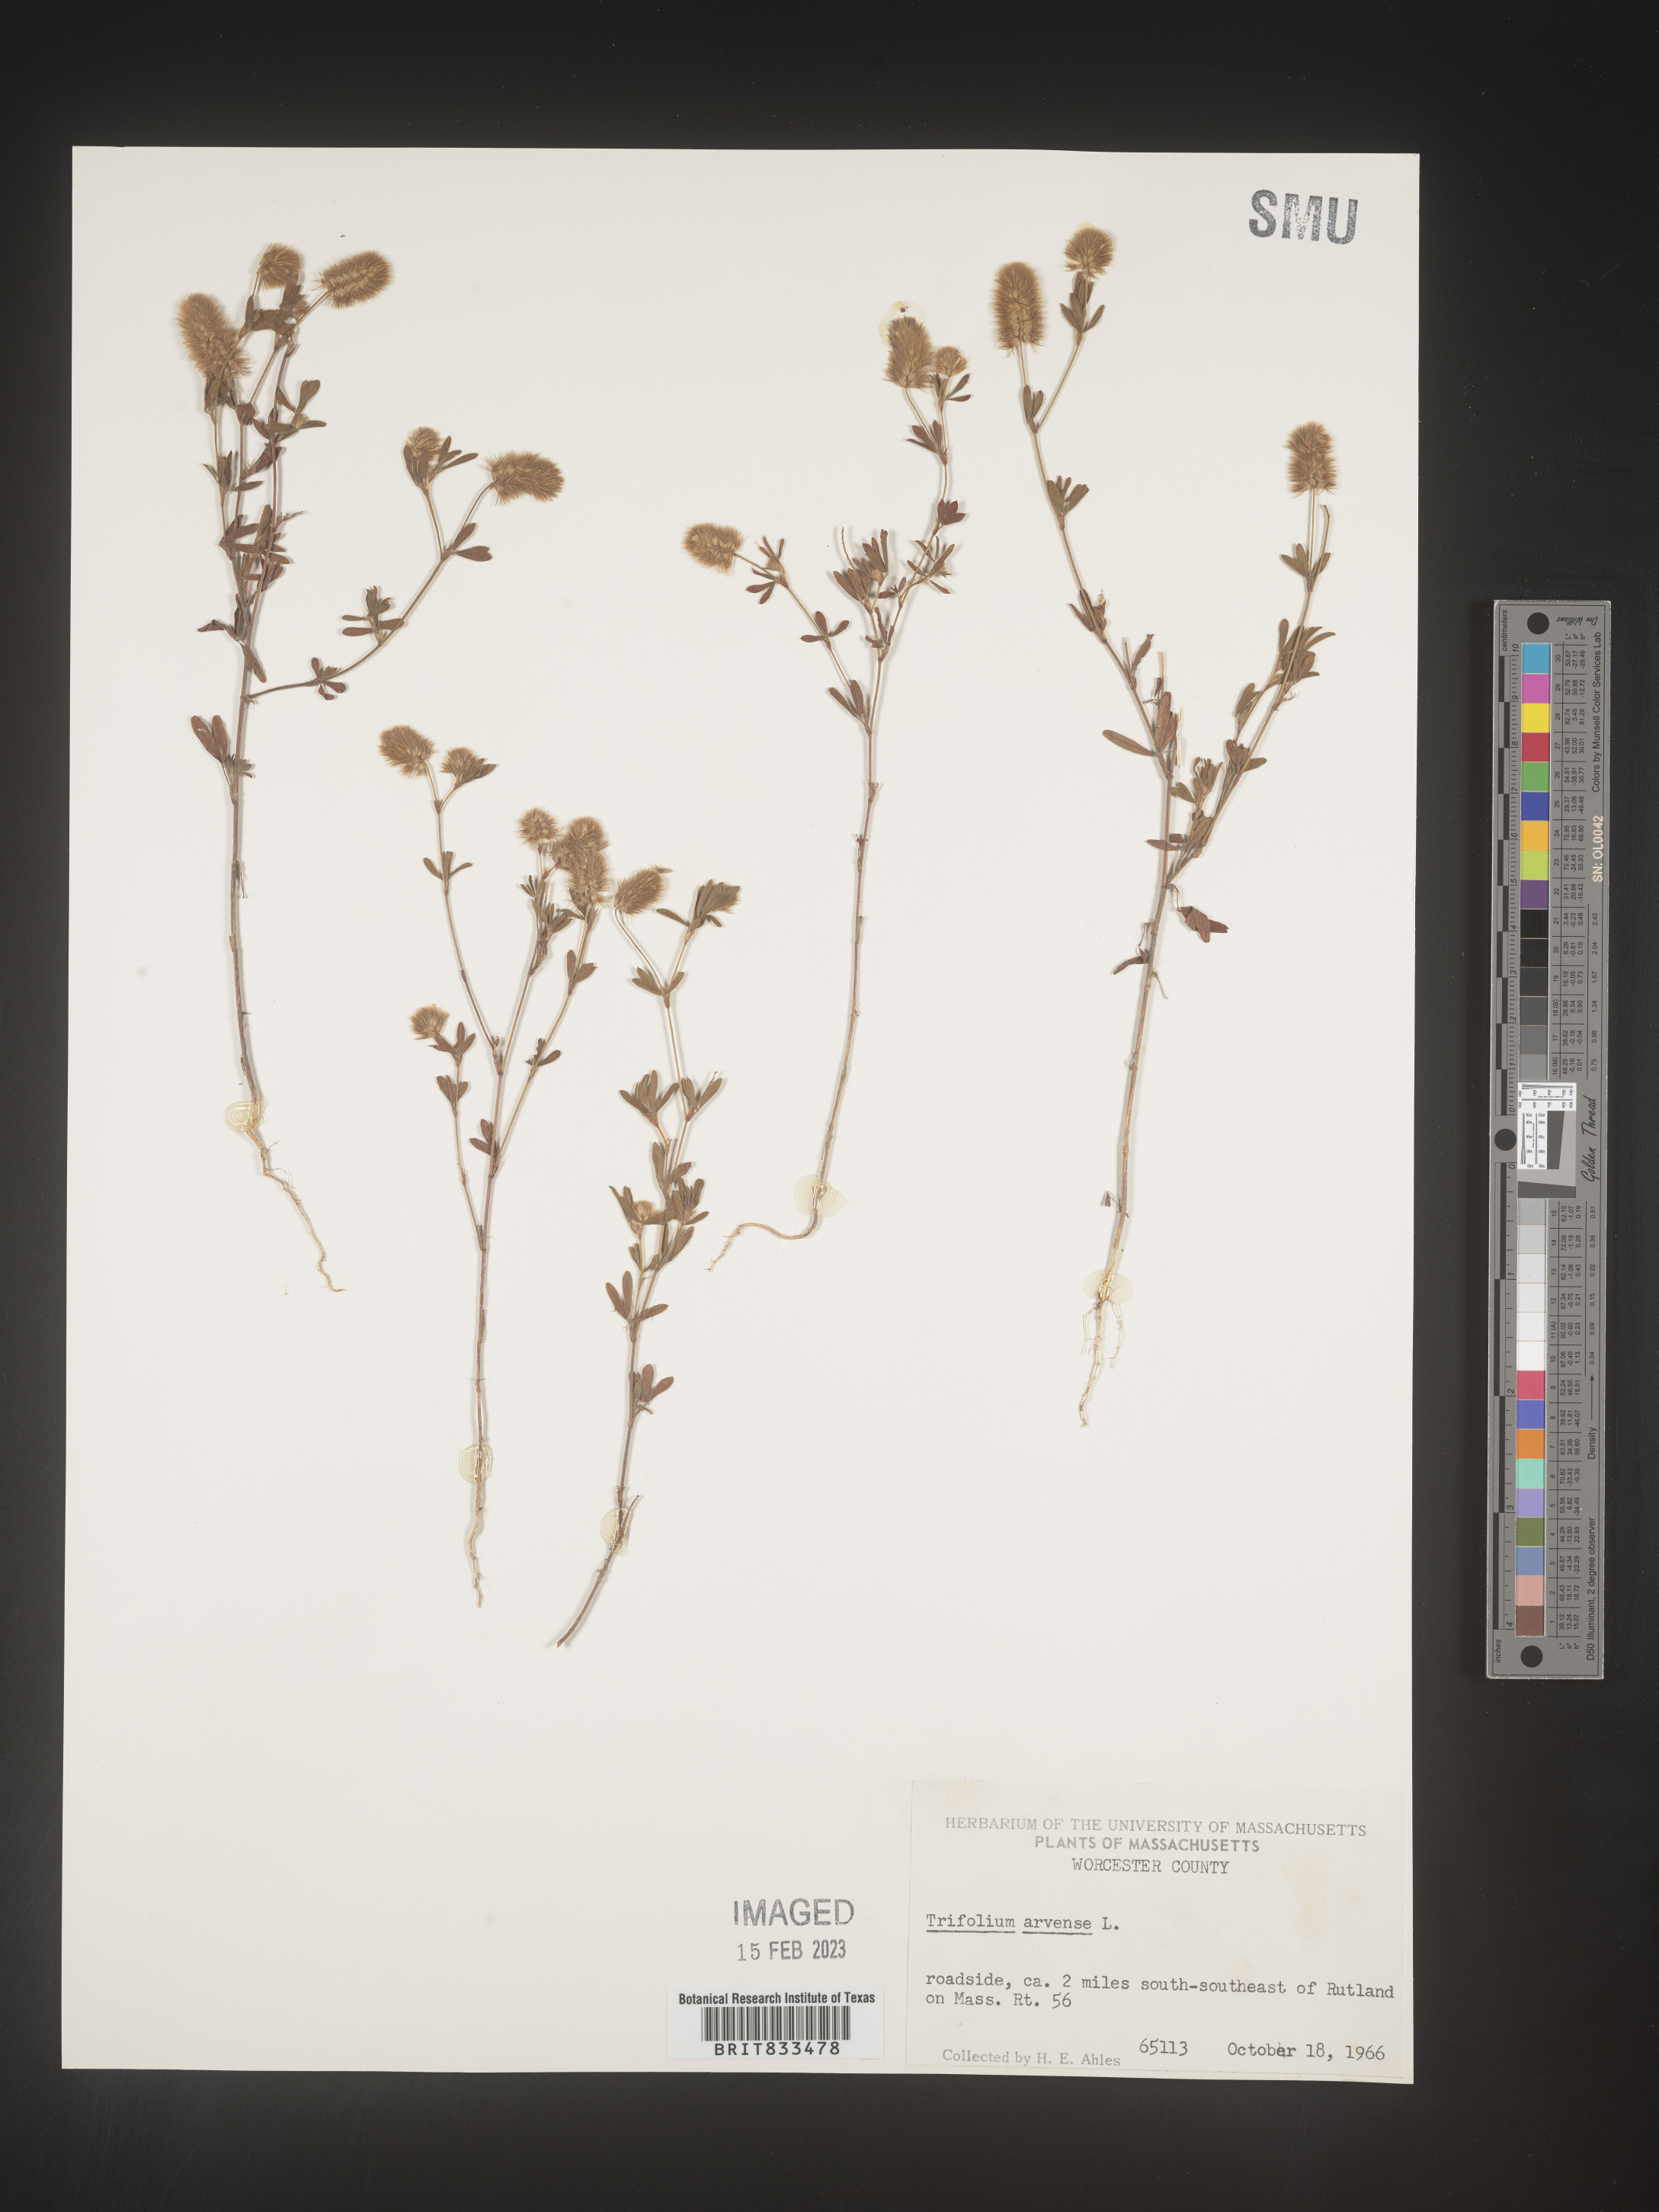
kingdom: Plantae
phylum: Tracheophyta
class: Magnoliopsida
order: Fabales
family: Fabaceae
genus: Trifolium
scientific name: Trifolium arvense
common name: Hare's-foot clover
